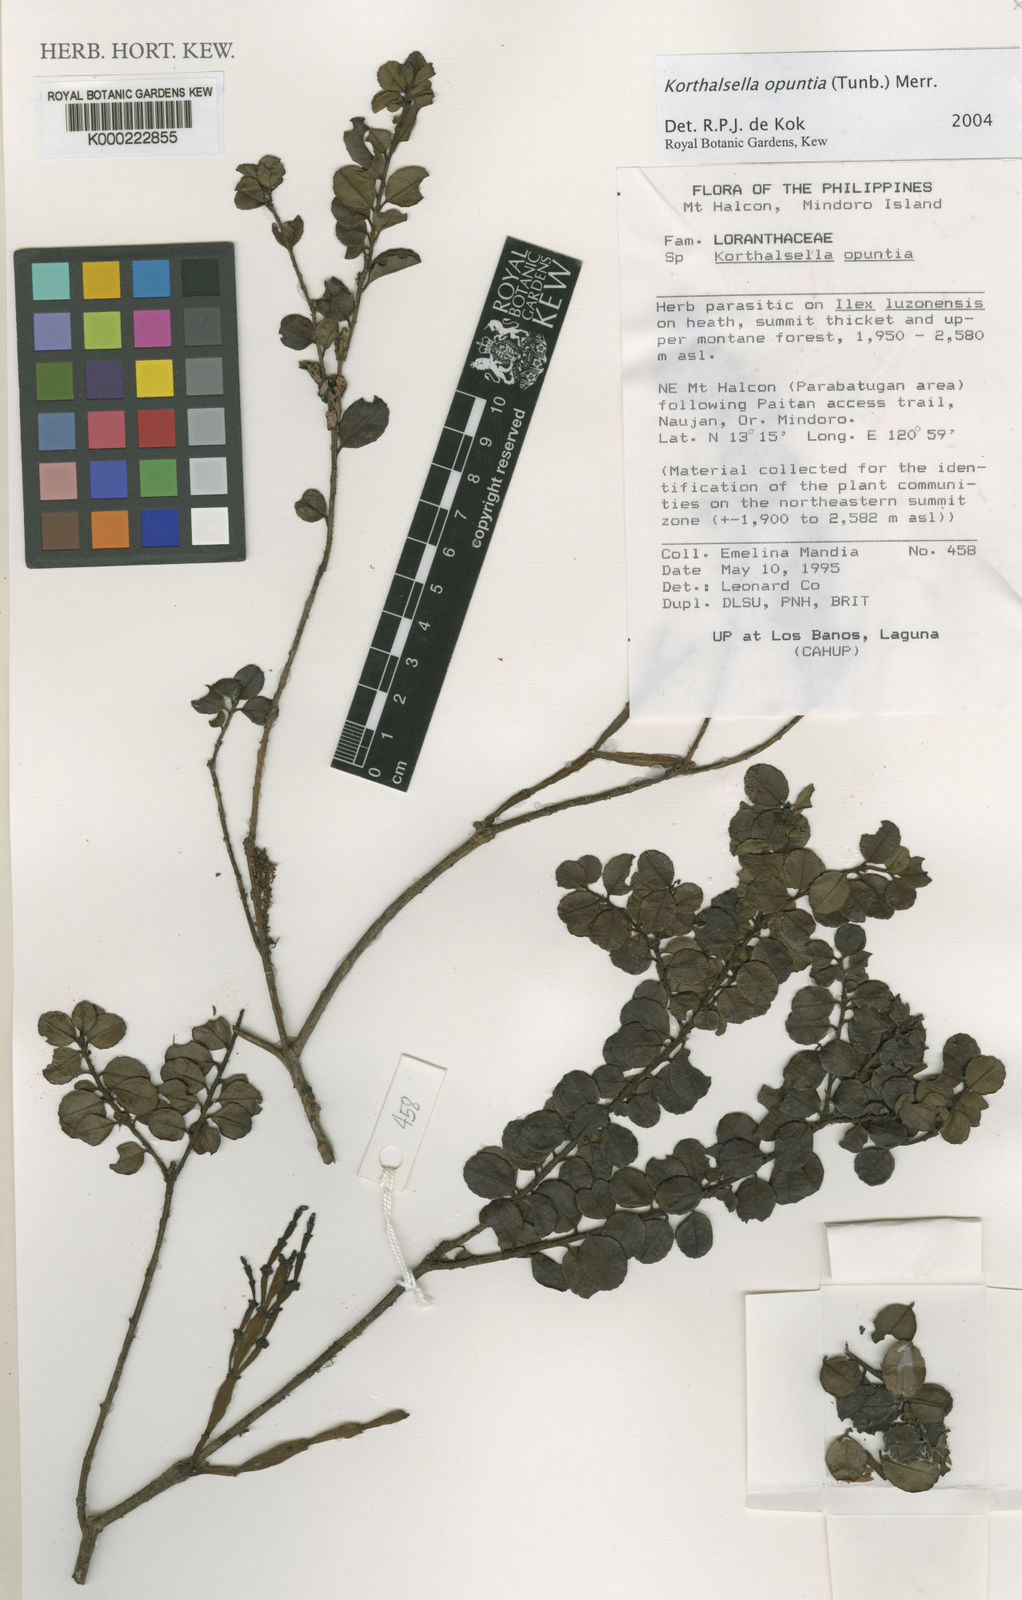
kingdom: Plantae
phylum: Tracheophyta
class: Magnoliopsida
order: Santalales
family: Viscaceae
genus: Korthalsella
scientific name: Korthalsella japonica
